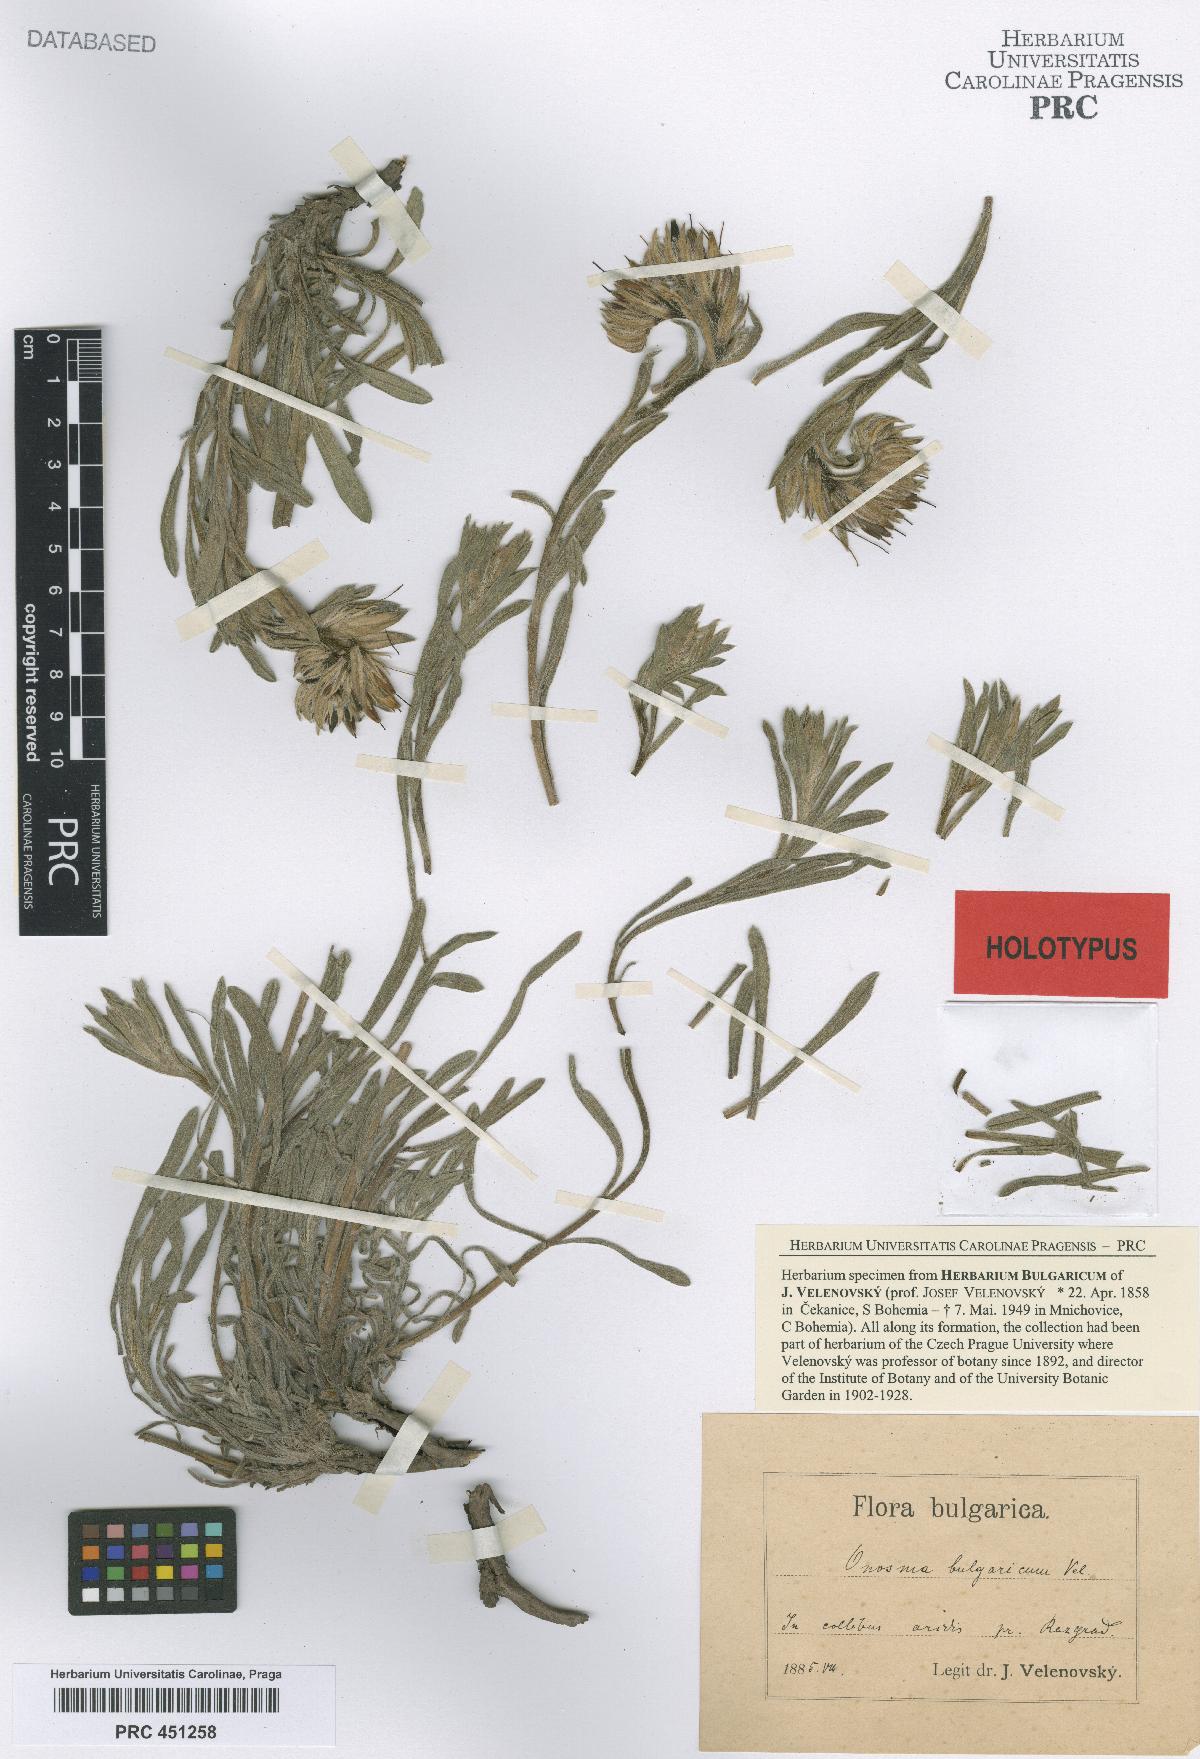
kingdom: Plantae
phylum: Tracheophyta
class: Magnoliopsida
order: Boraginales
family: Boraginaceae
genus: Onosma
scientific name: Onosma bulgarica
